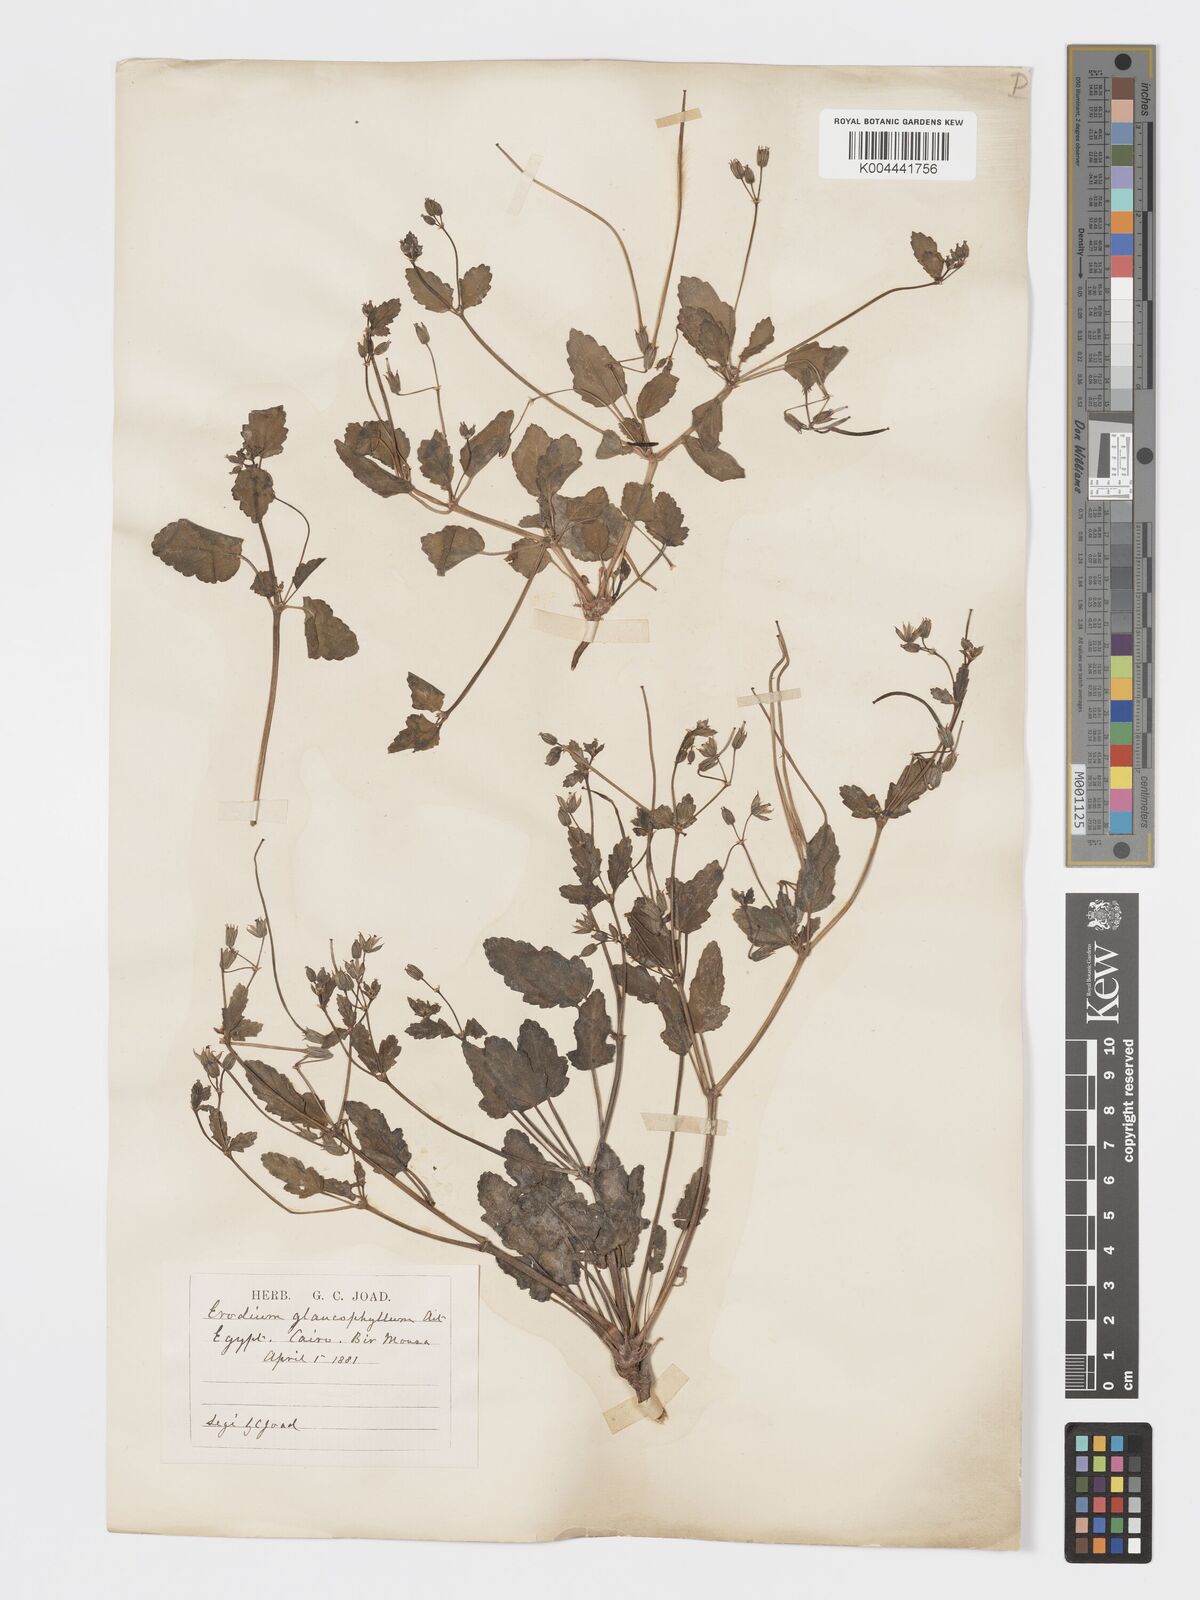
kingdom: Plantae
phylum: Tracheophyta
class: Magnoliopsida
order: Geraniales
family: Geraniaceae
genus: Erodium
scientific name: Erodium glaucophyllum
